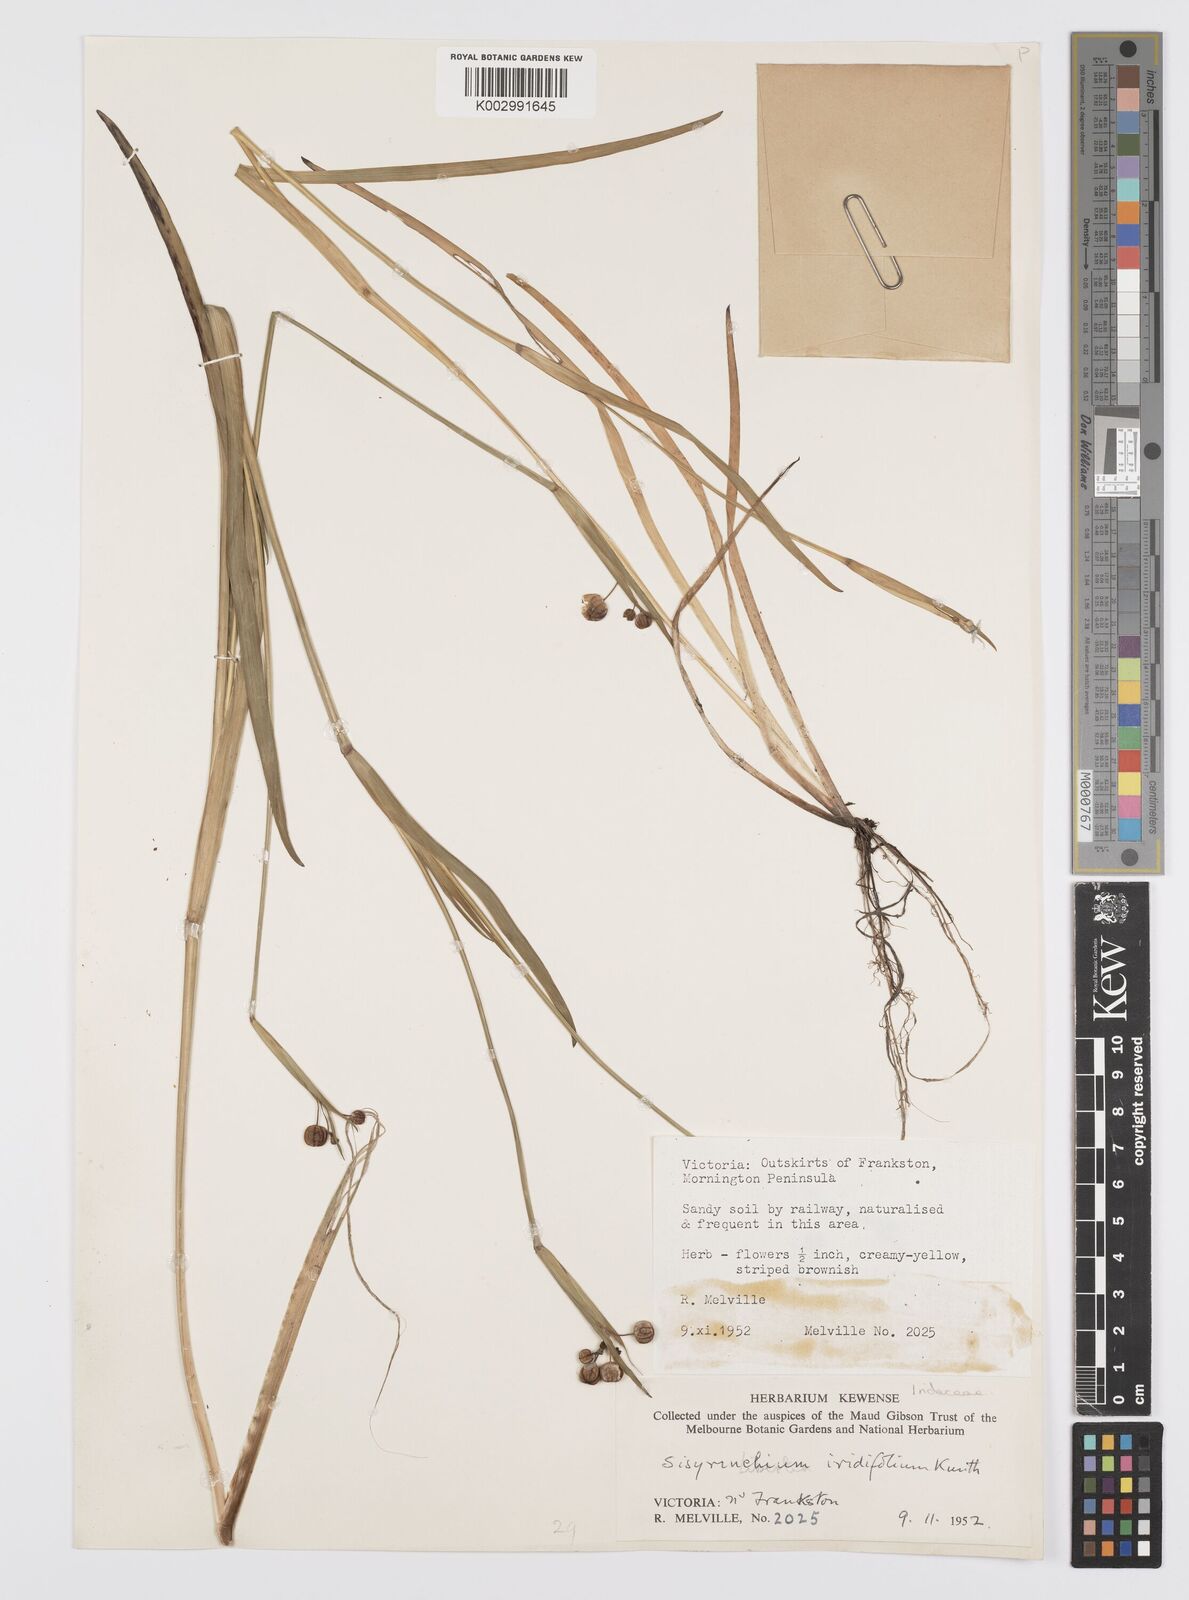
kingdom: Plantae
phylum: Tracheophyta
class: Liliopsida
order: Asparagales
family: Iridaceae
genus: Sisyrinchium
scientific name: Sisyrinchium micranthum
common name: Bermuda pigroot
